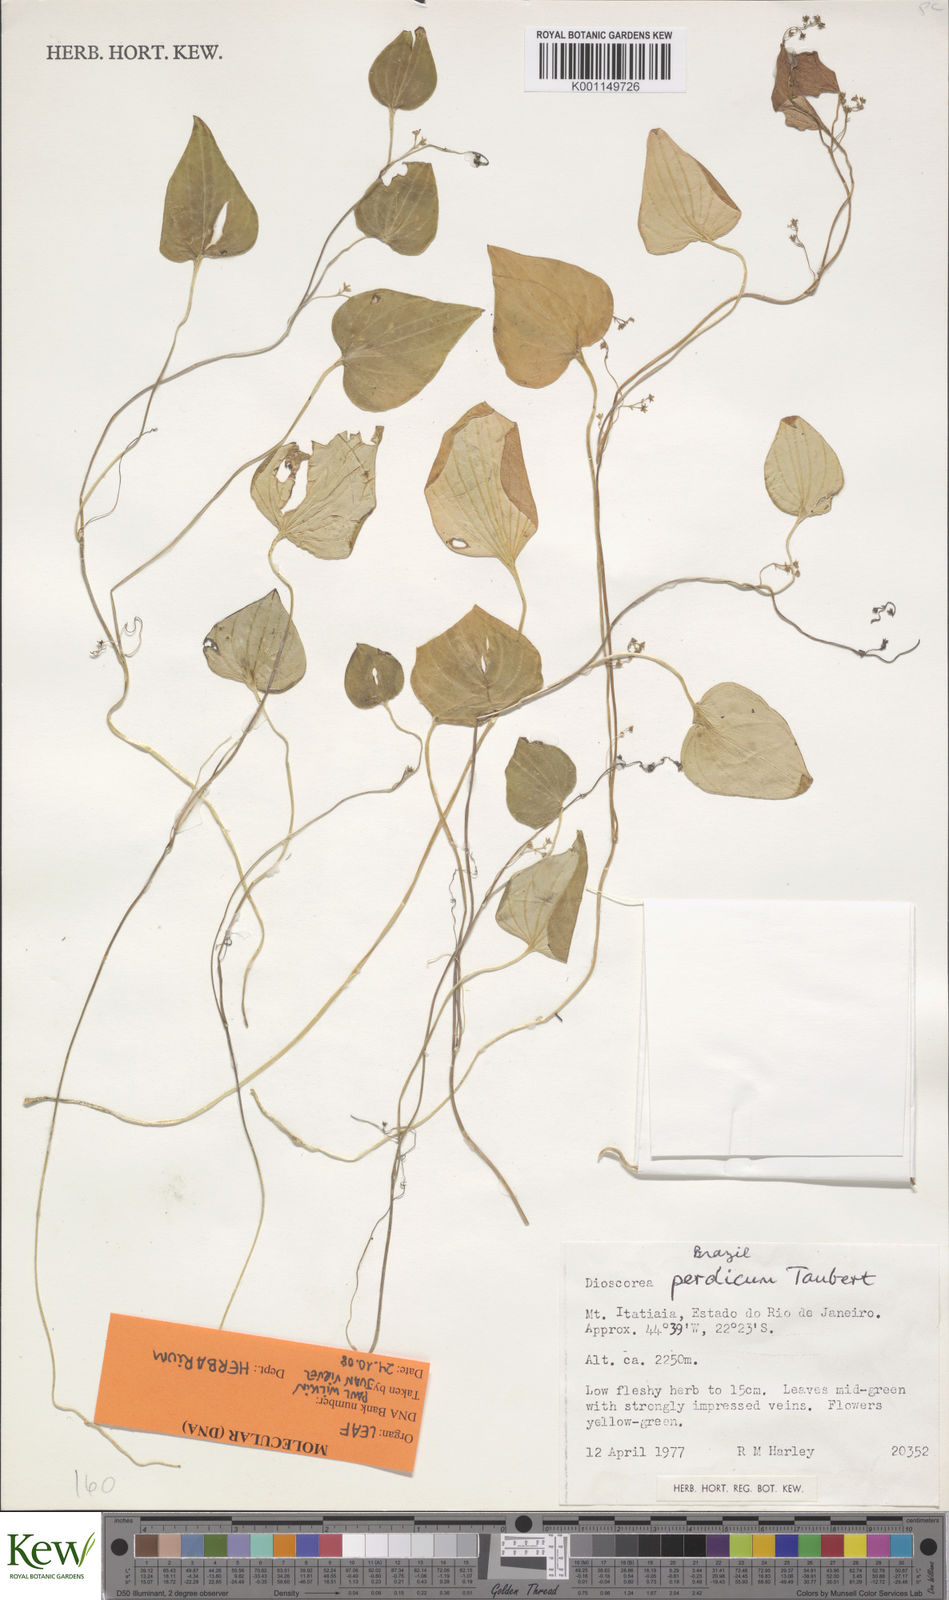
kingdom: Plantae
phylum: Tracheophyta
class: Liliopsida
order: Dioscoreales
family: Dioscoreaceae
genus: Dioscorea
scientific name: Dioscorea perdicum
